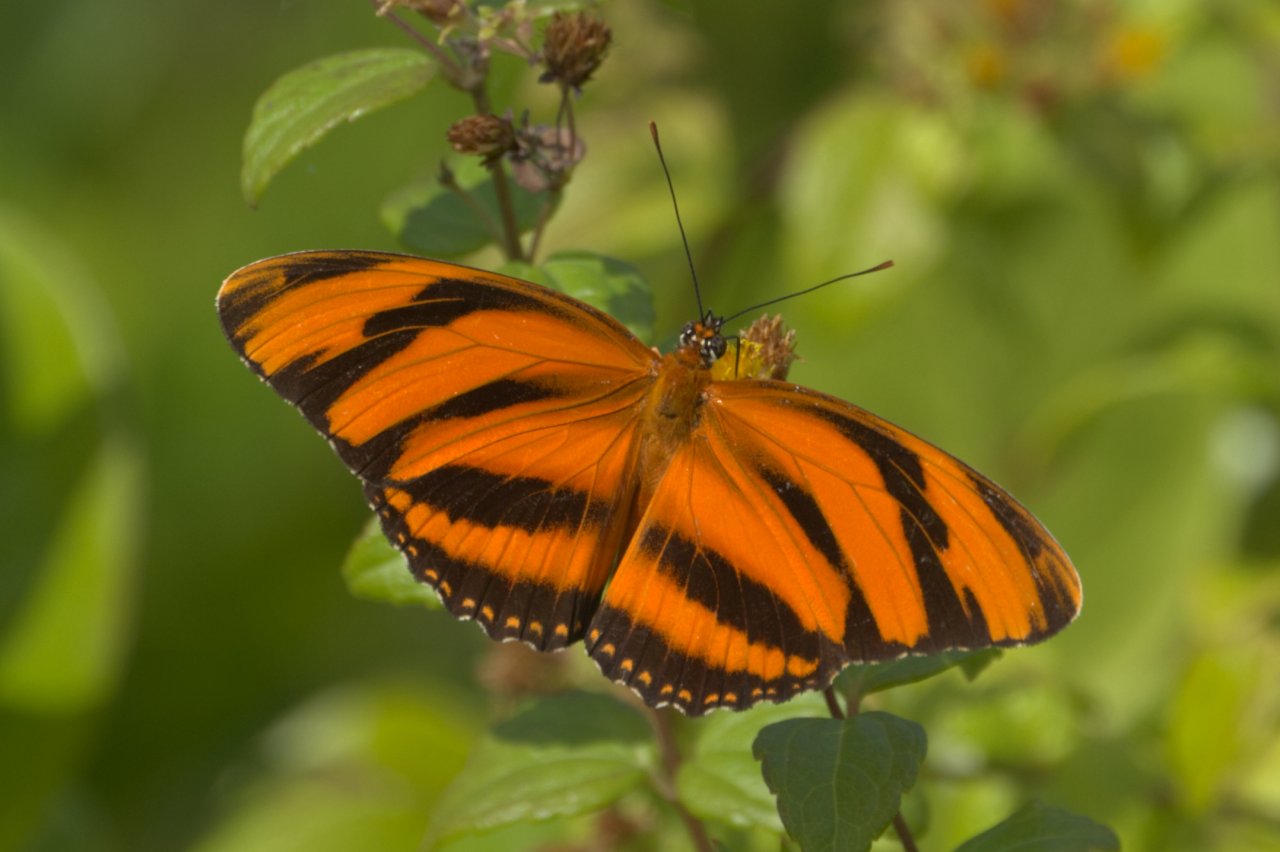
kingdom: Animalia
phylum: Arthropoda
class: Insecta
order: Lepidoptera
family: Nymphalidae
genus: Dryadula
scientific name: Dryadula phaetusa
